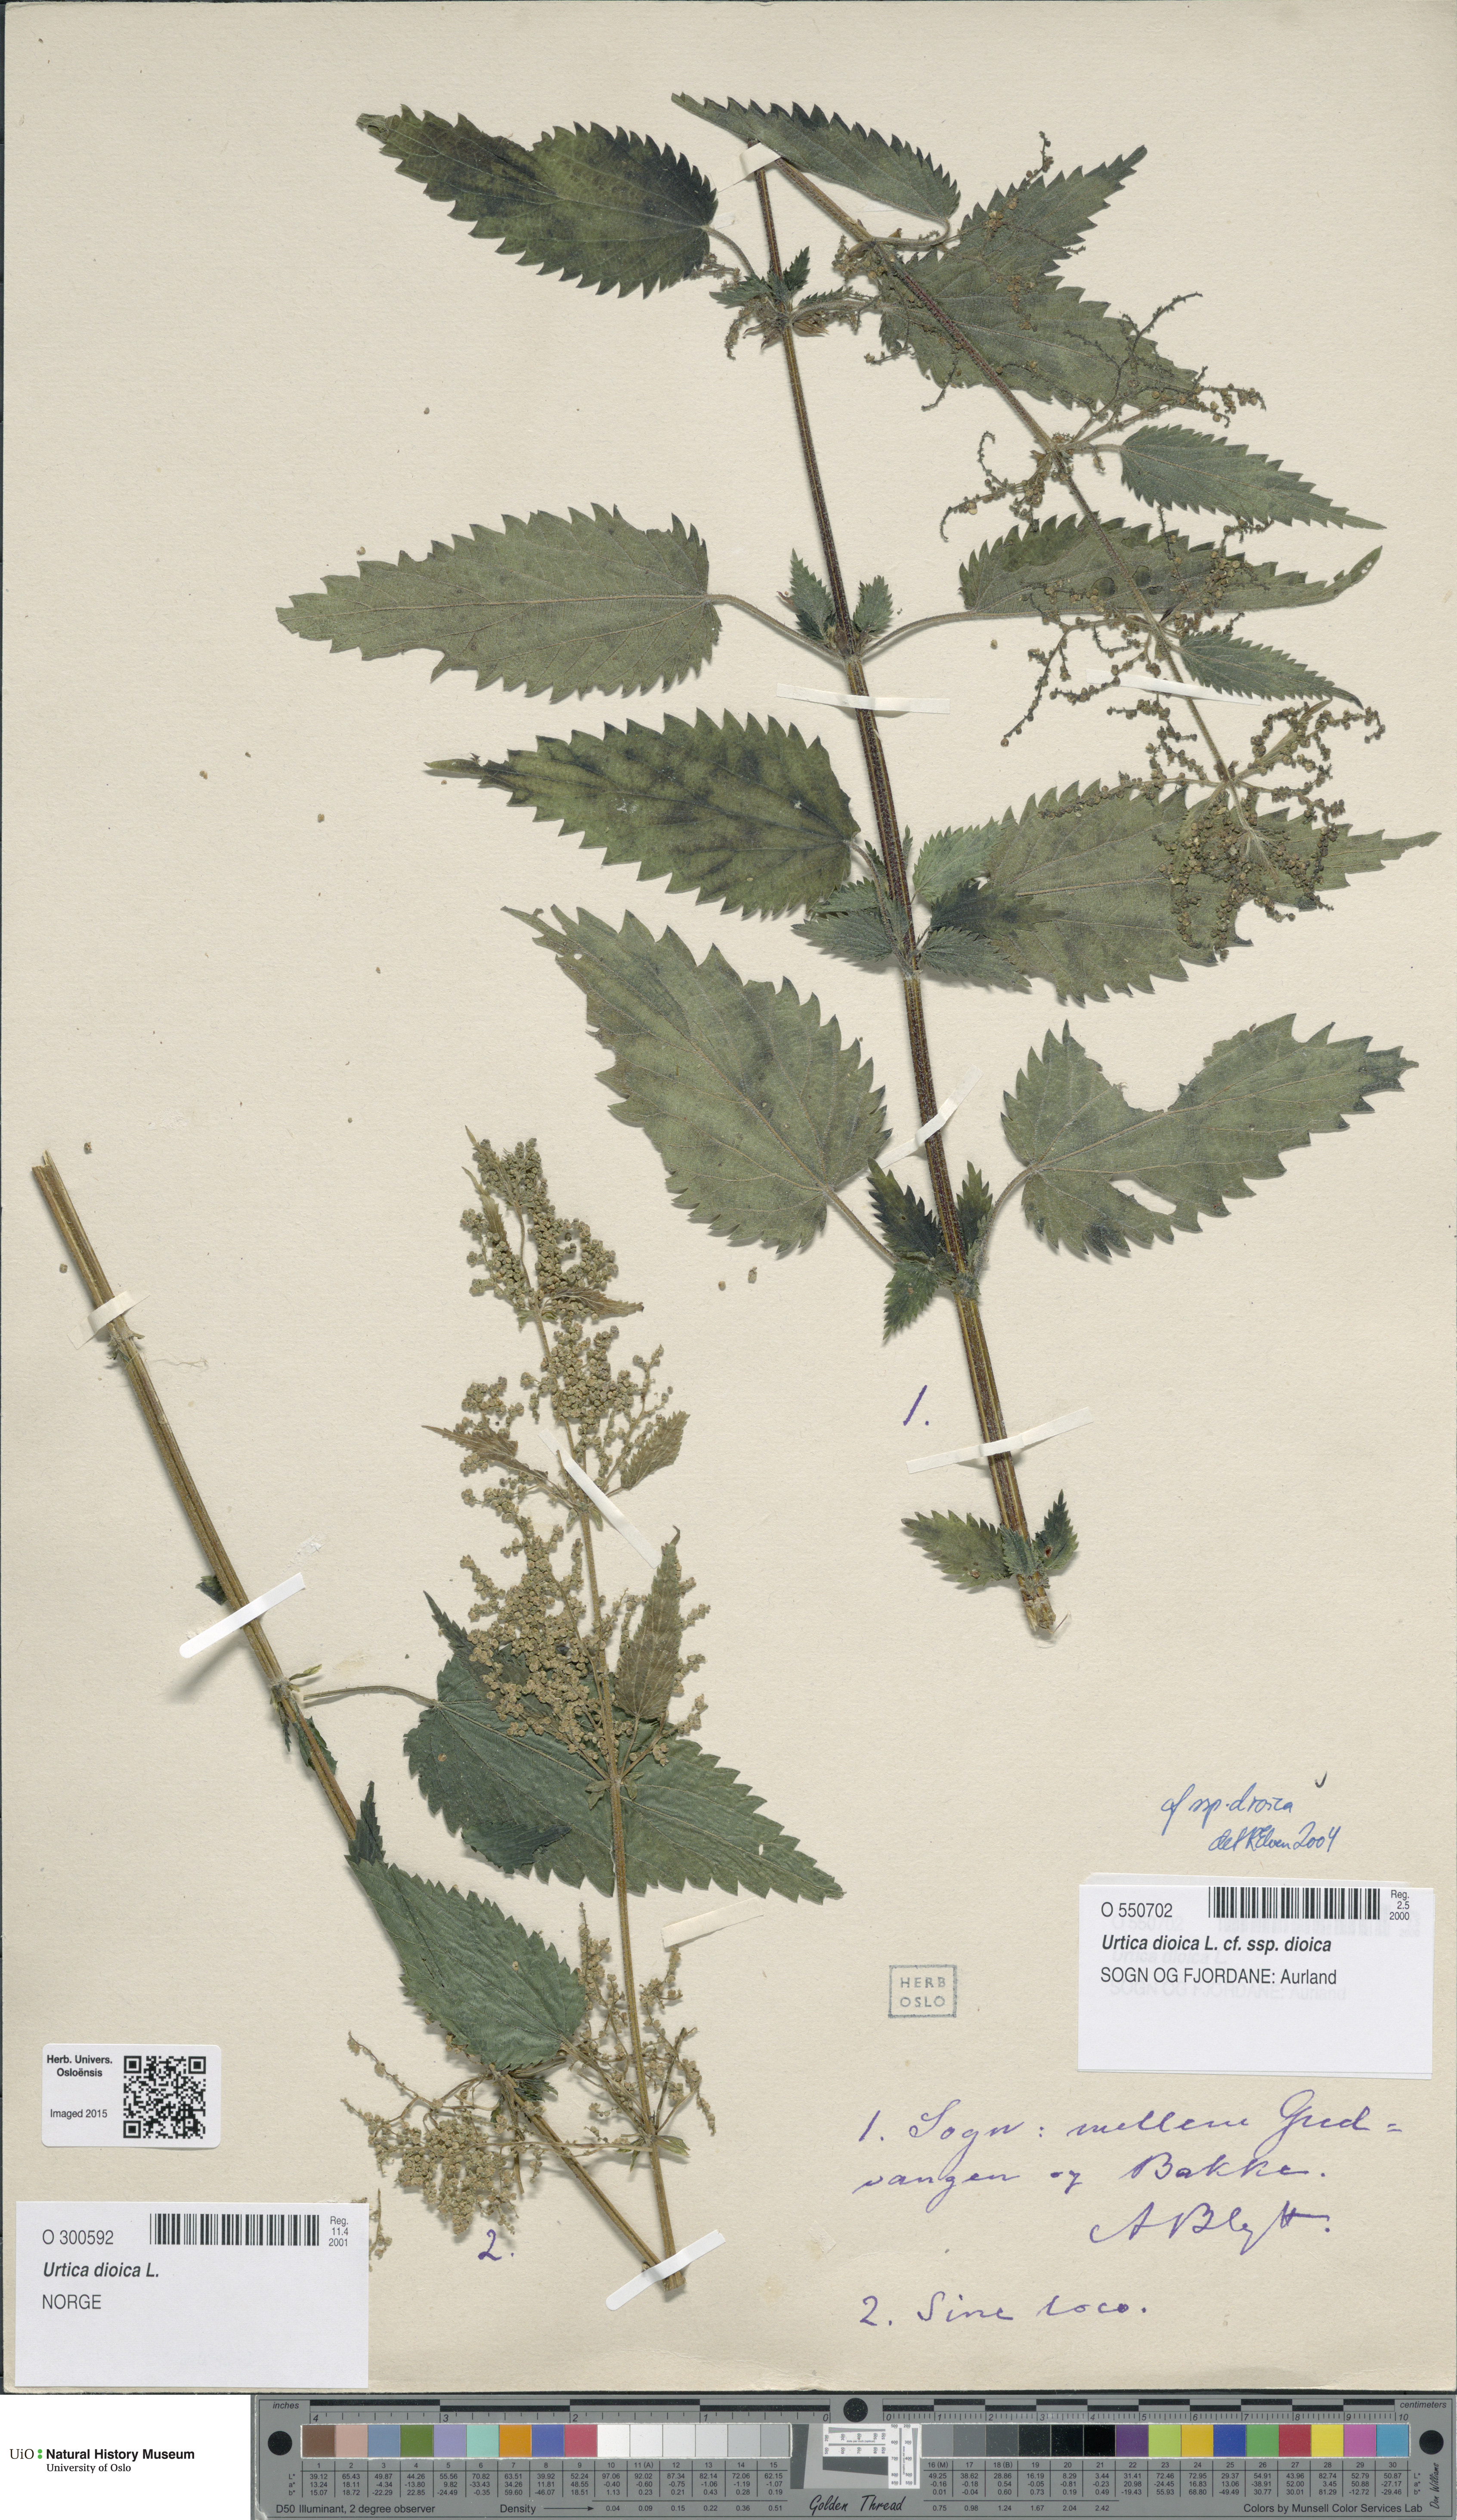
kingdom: Plantae
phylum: Tracheophyta
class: Magnoliopsida
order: Rosales
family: Urticaceae
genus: Urtica
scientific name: Urtica dioica
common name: Common nettle
